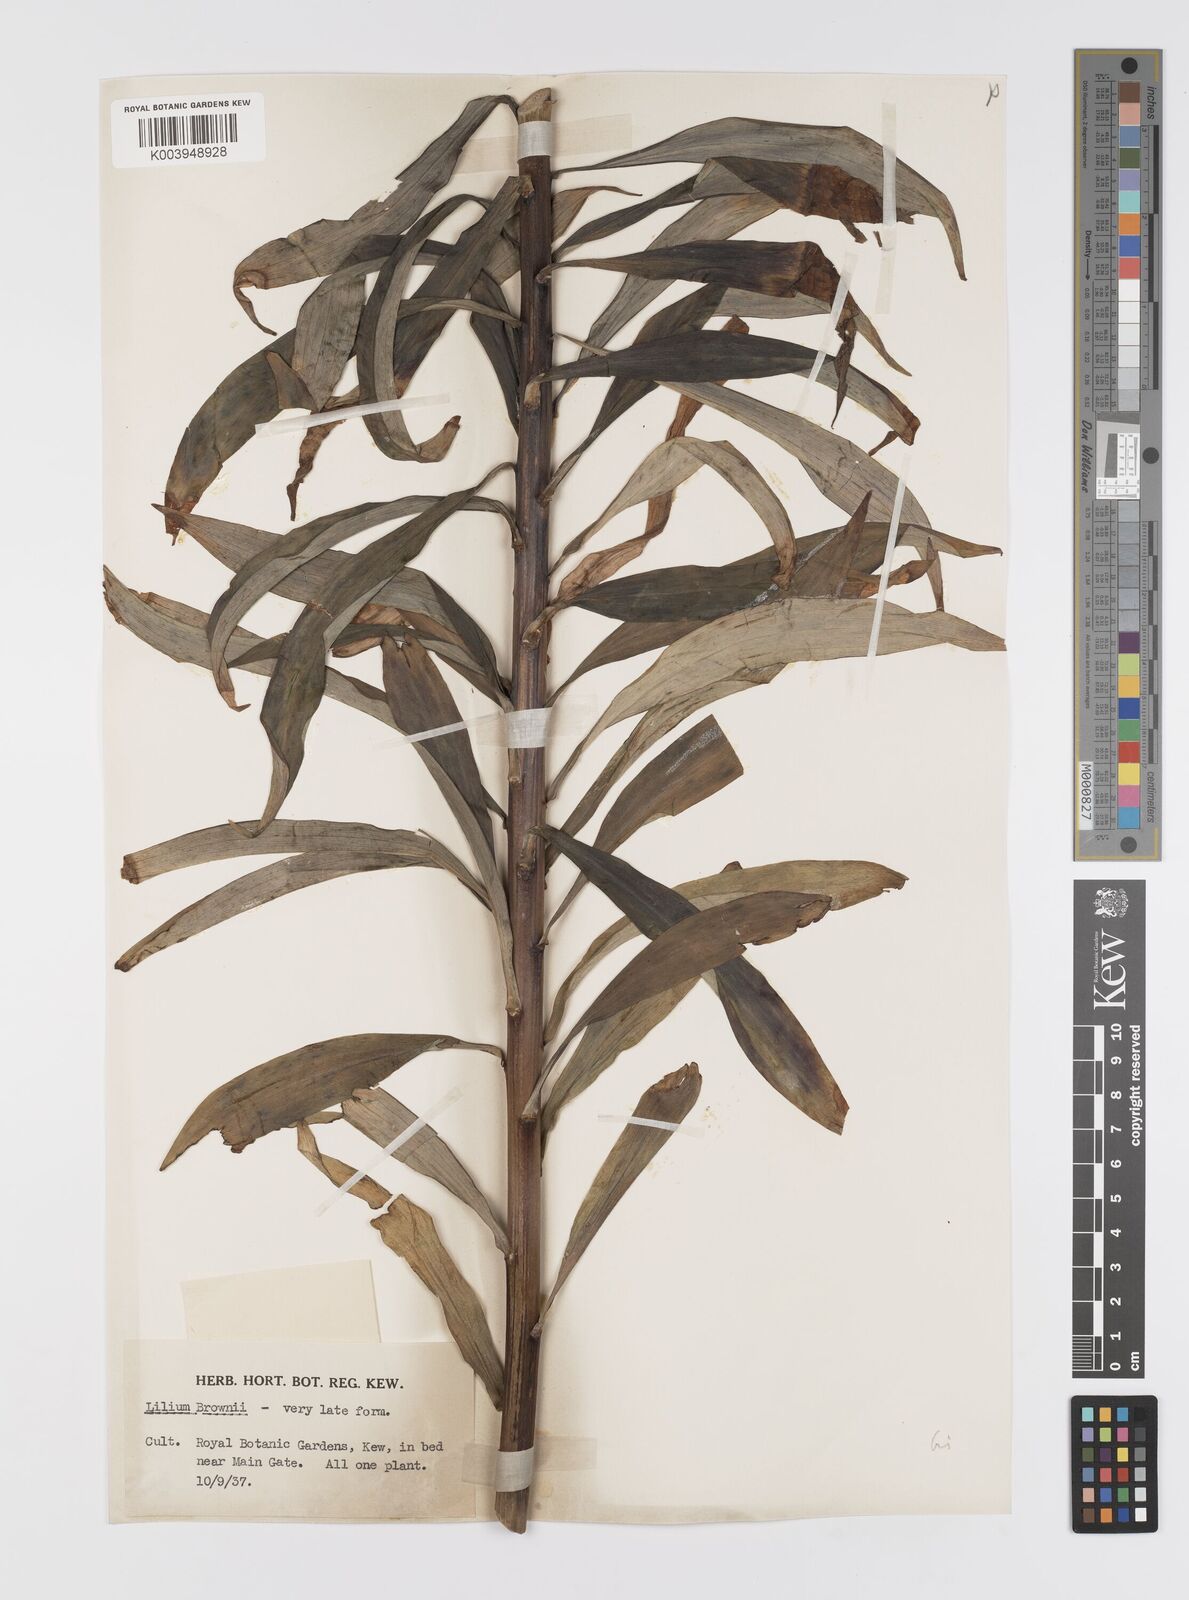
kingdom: Plantae
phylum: Tracheophyta
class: Liliopsida
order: Liliales
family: Liliaceae
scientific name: Liliaceae
